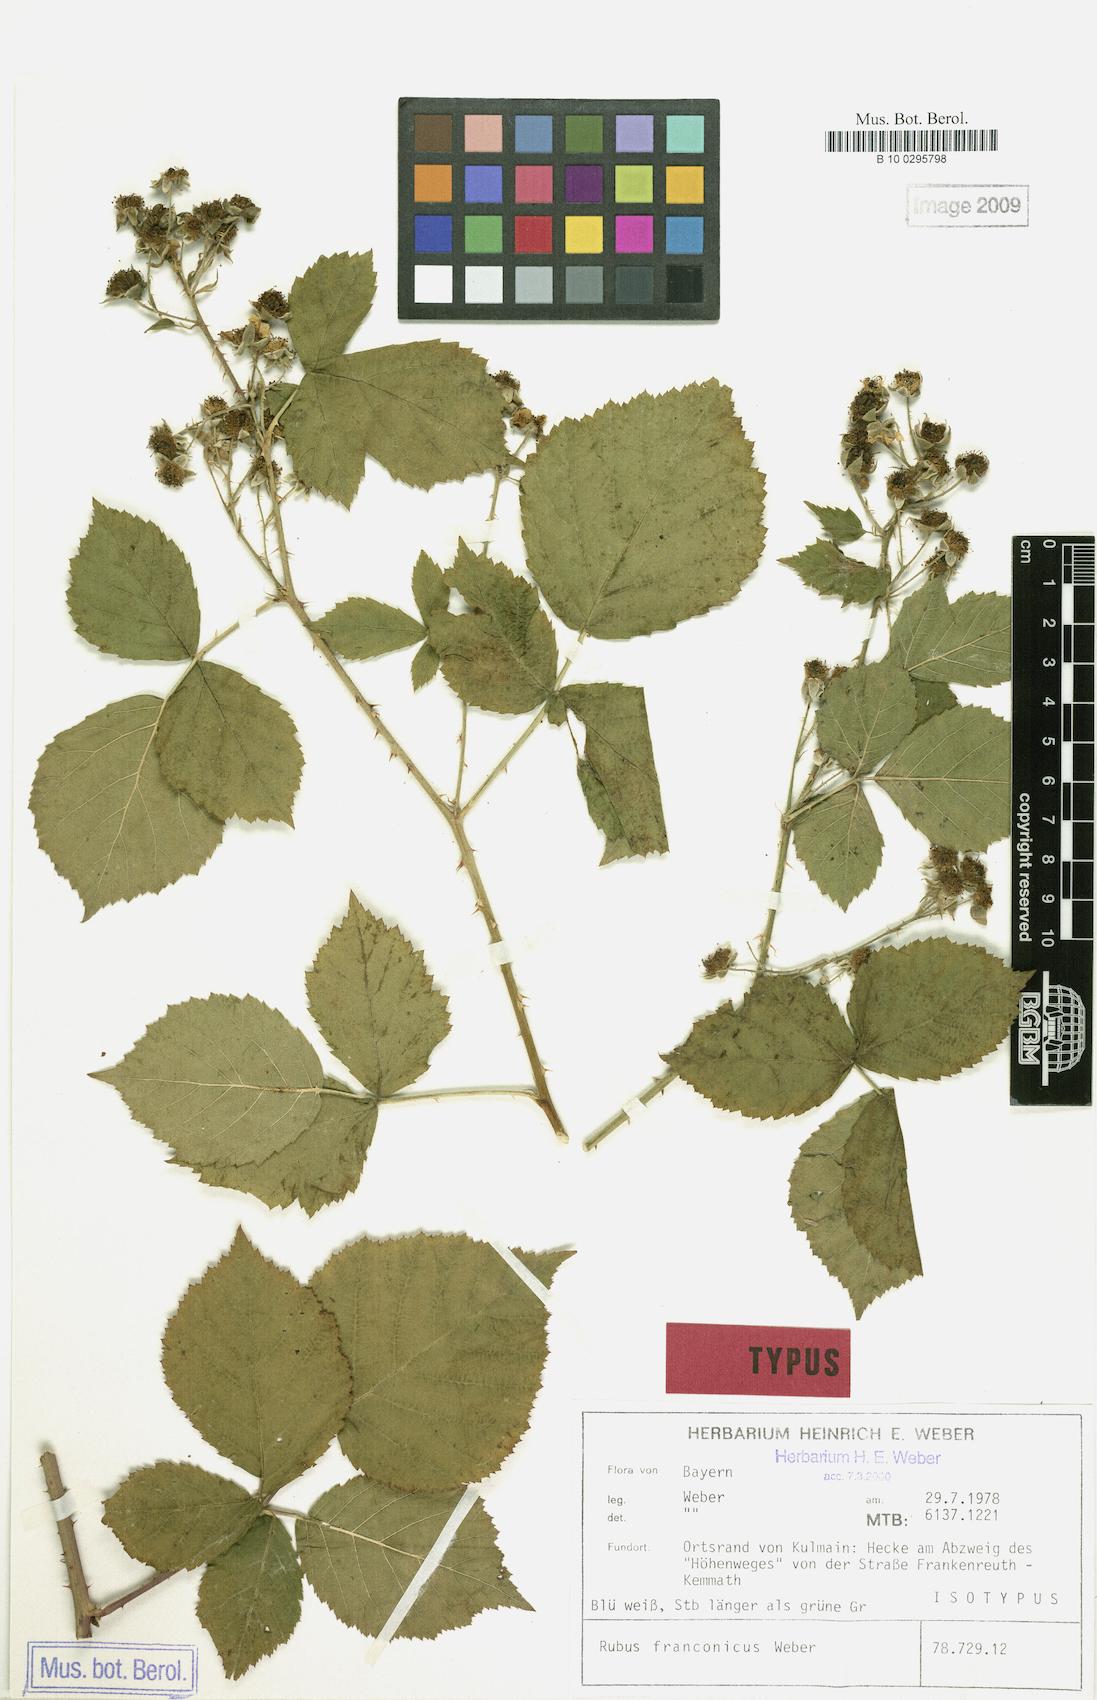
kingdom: Plantae
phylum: Tracheophyta
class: Magnoliopsida
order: Rosales
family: Rosaceae
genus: Rubus
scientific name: Rubus franconicus
